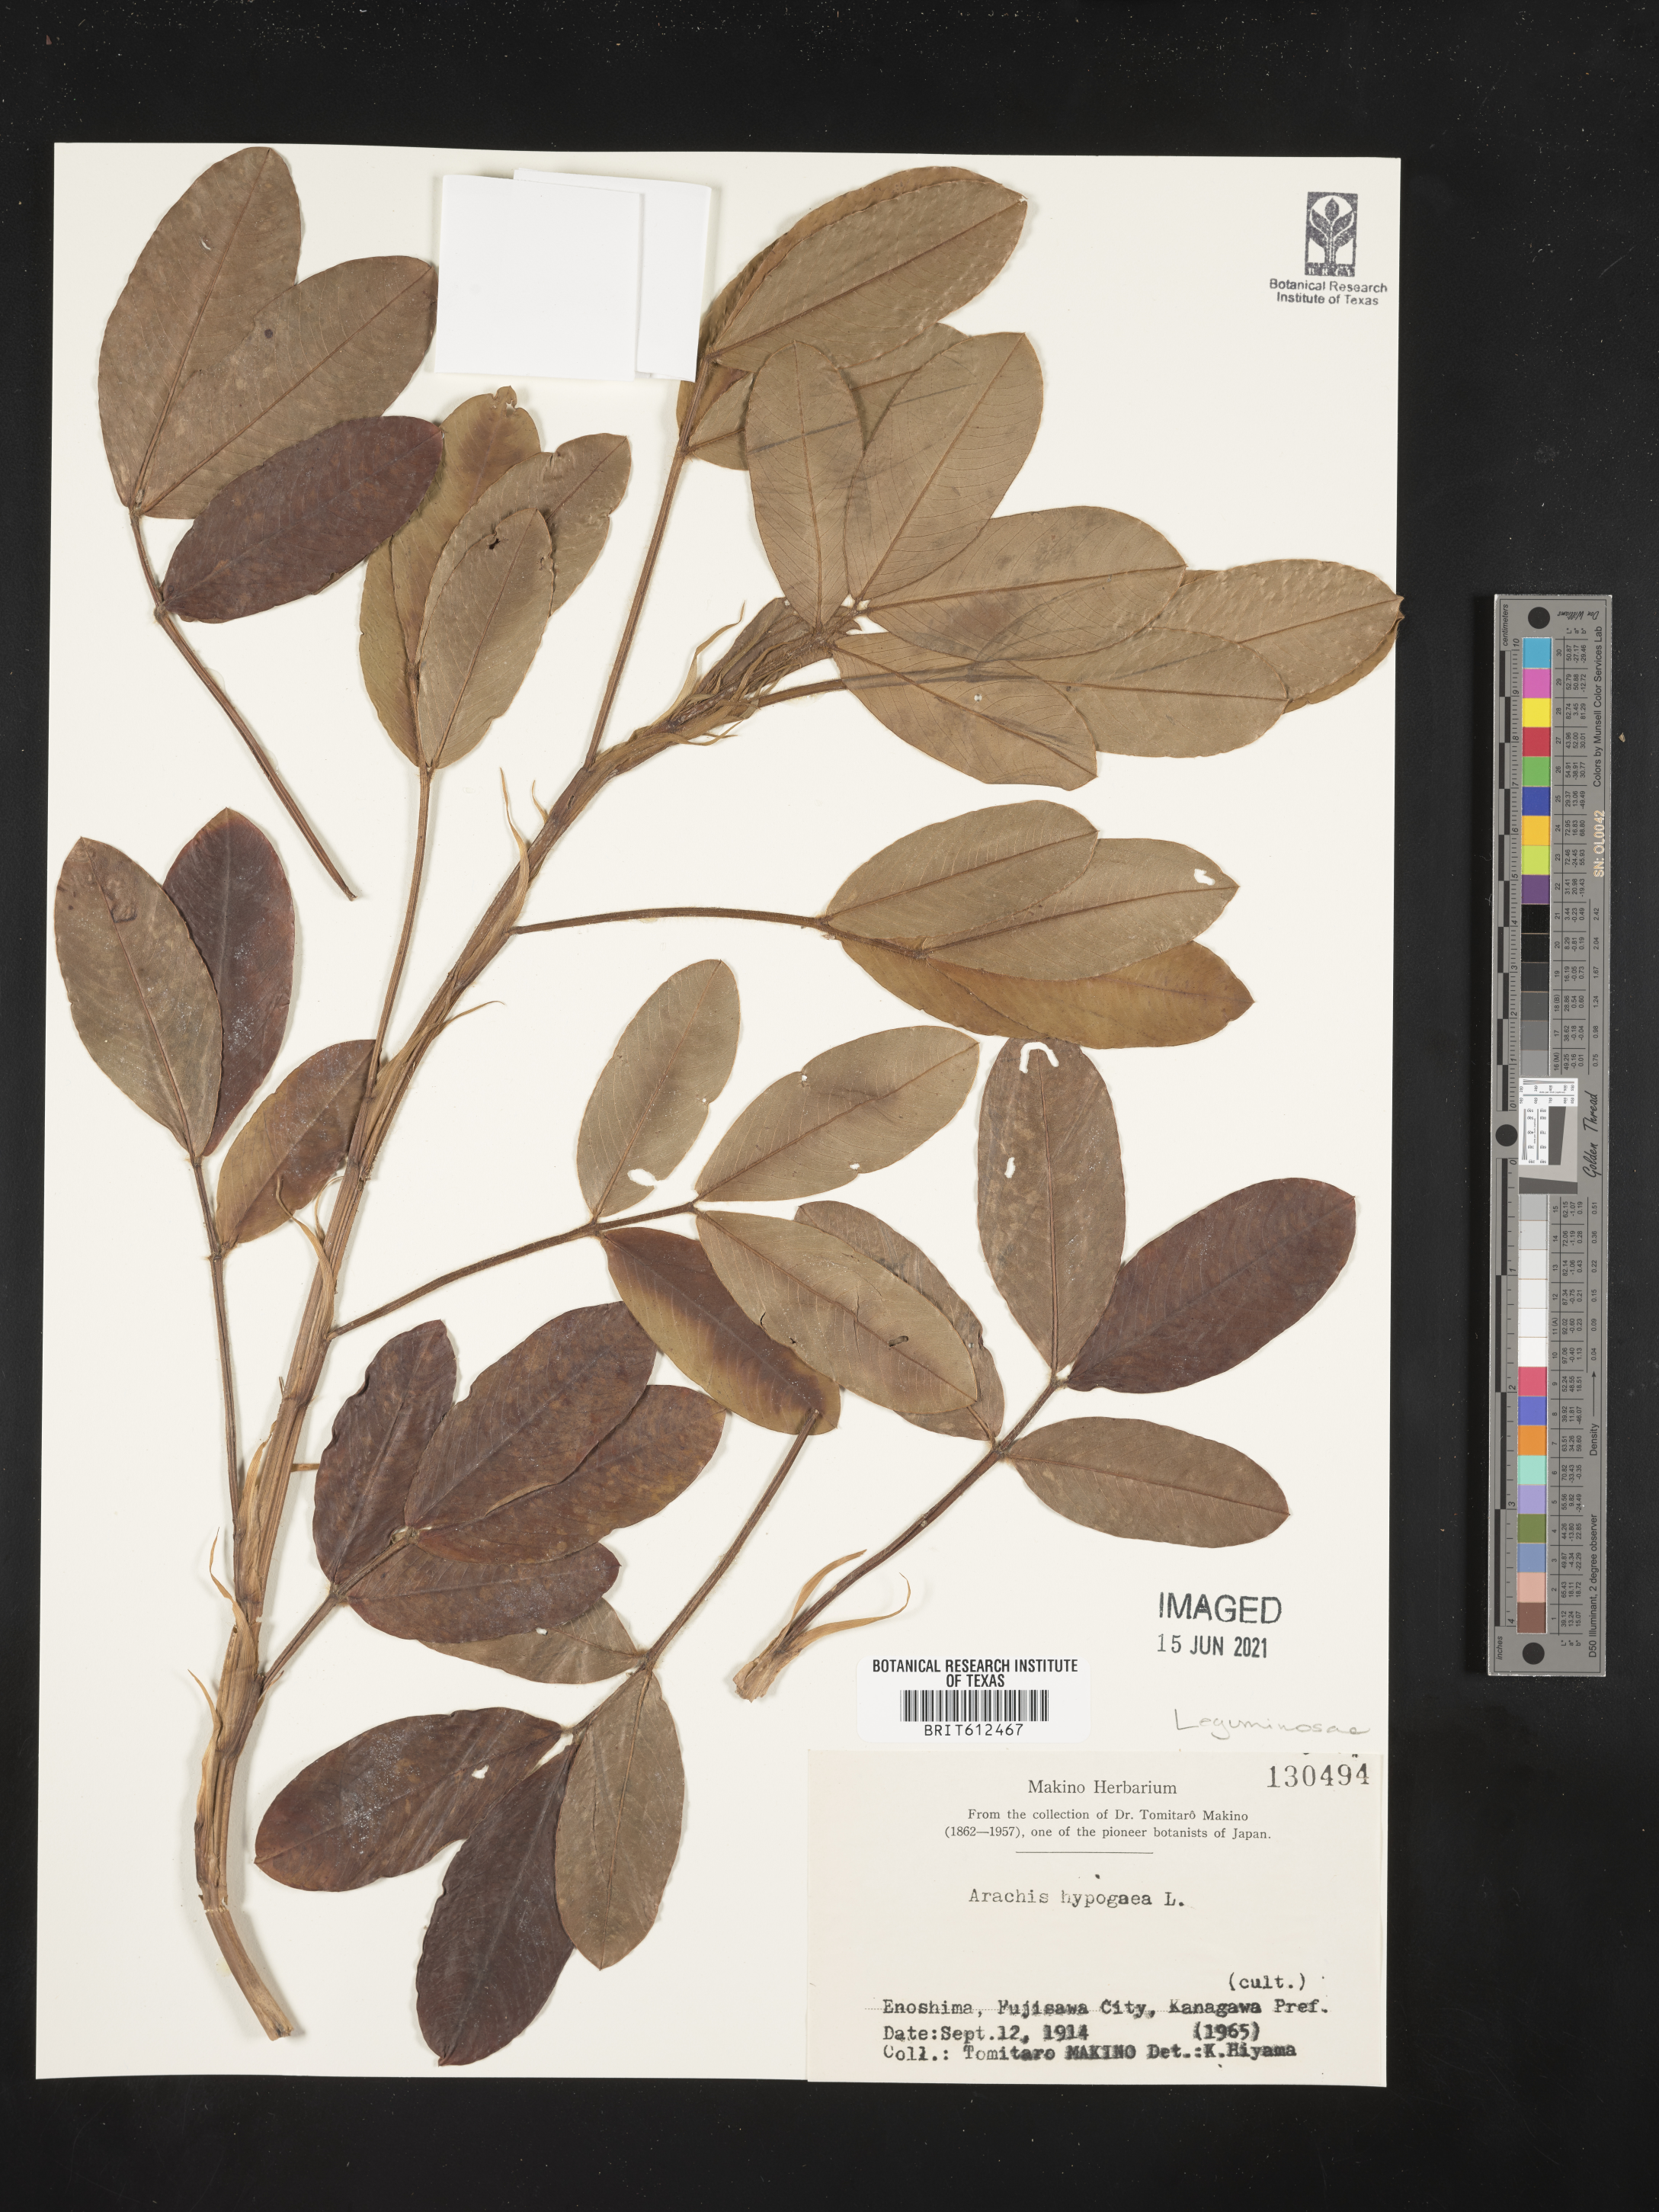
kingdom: Plantae
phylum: Tracheophyta
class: Magnoliopsida
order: Fabales
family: Fabaceae
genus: Arachis
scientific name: Arachis hypogaea
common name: Peanut
